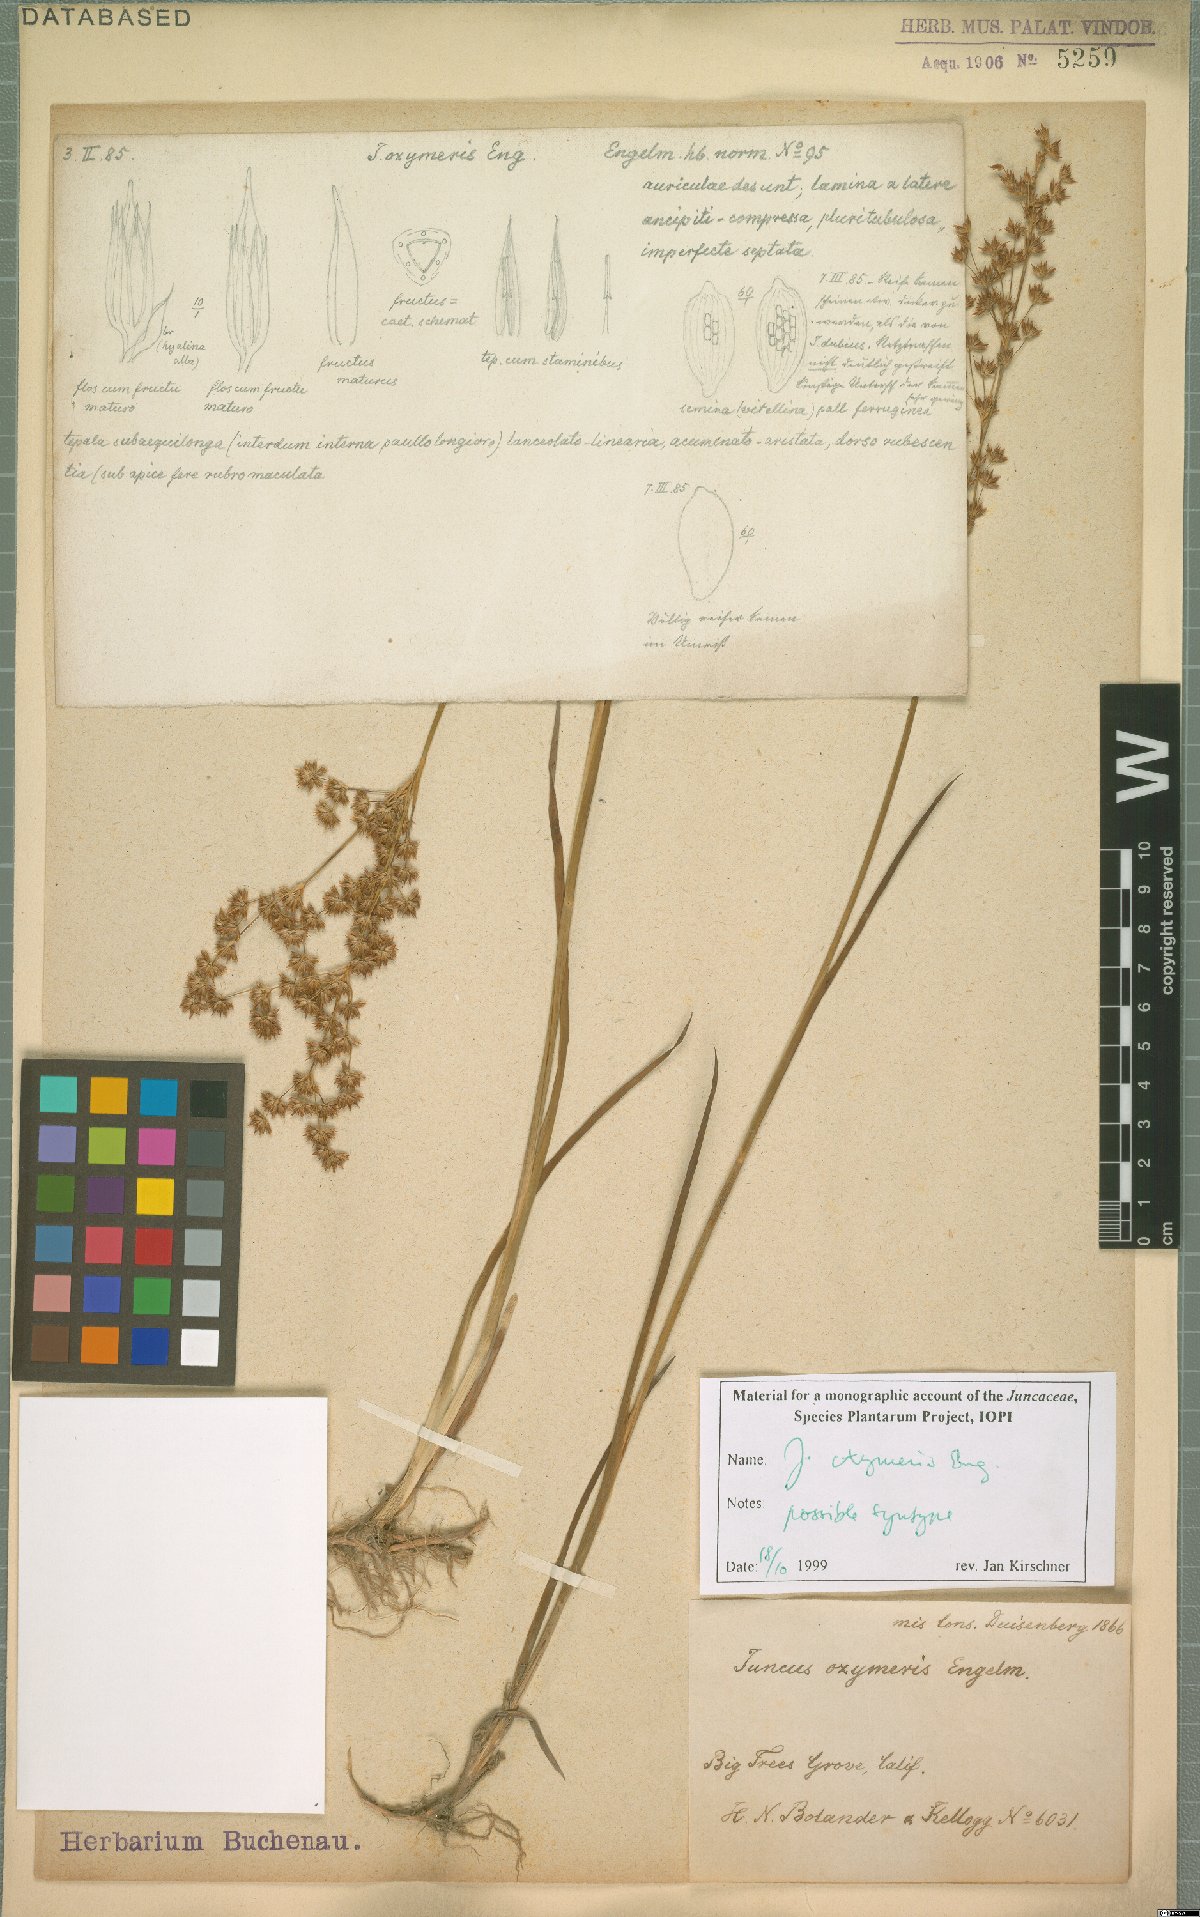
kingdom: Plantae
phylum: Tracheophyta
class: Liliopsida
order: Poales
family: Juncaceae
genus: Juncus
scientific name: Juncus oxymeris
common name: Pointed rush
